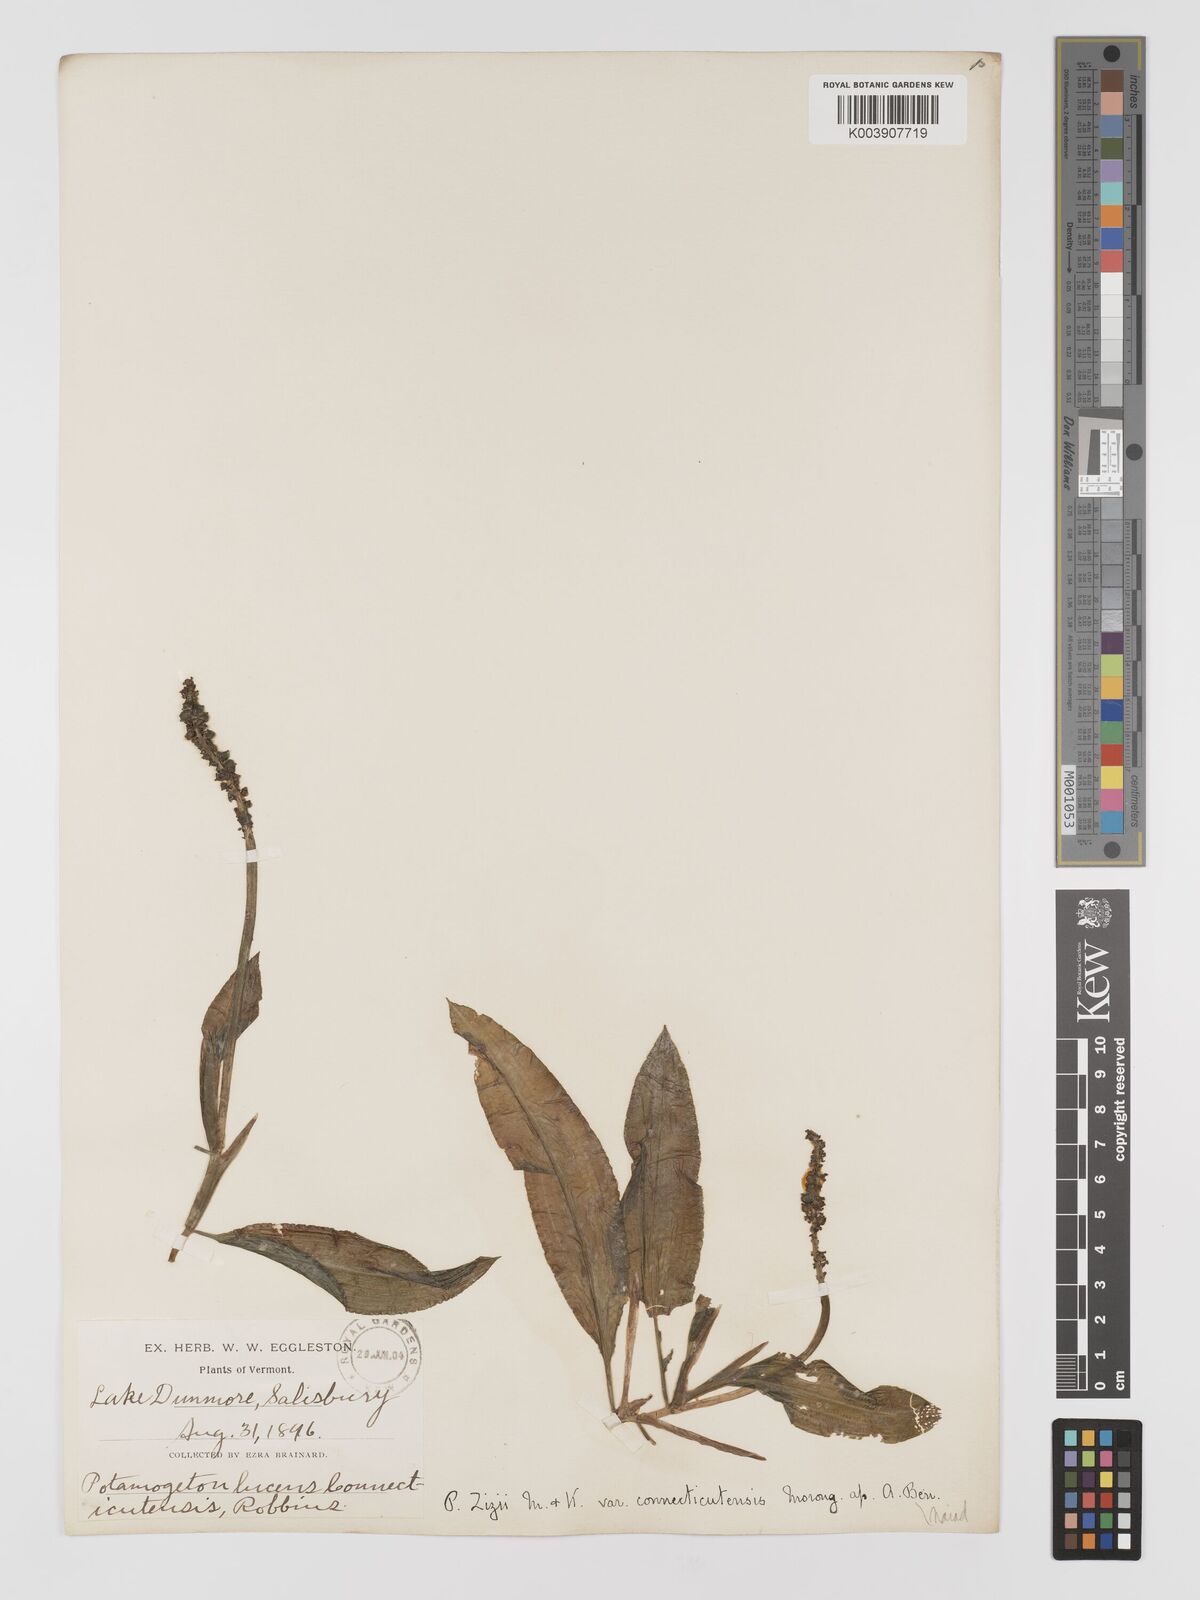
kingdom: Plantae
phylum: Tracheophyta
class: Liliopsida
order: Alismatales
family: Potamogetonaceae
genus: Potamogeton
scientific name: Potamogeton lucens
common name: Shining pondweed
